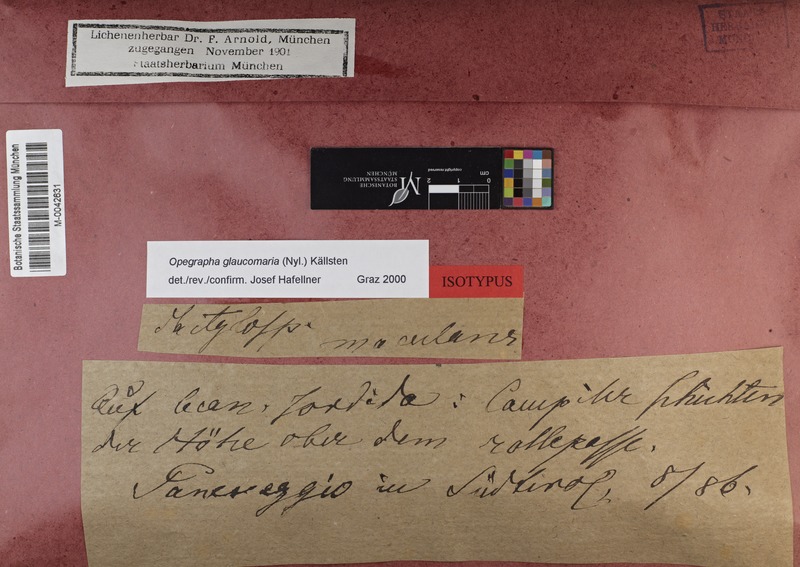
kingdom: Fungi
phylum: Ascomycota
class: Lecanoromycetes
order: Lecanorales
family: Lecanoraceae
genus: Glaucomaria
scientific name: Glaucomaria rupicola
